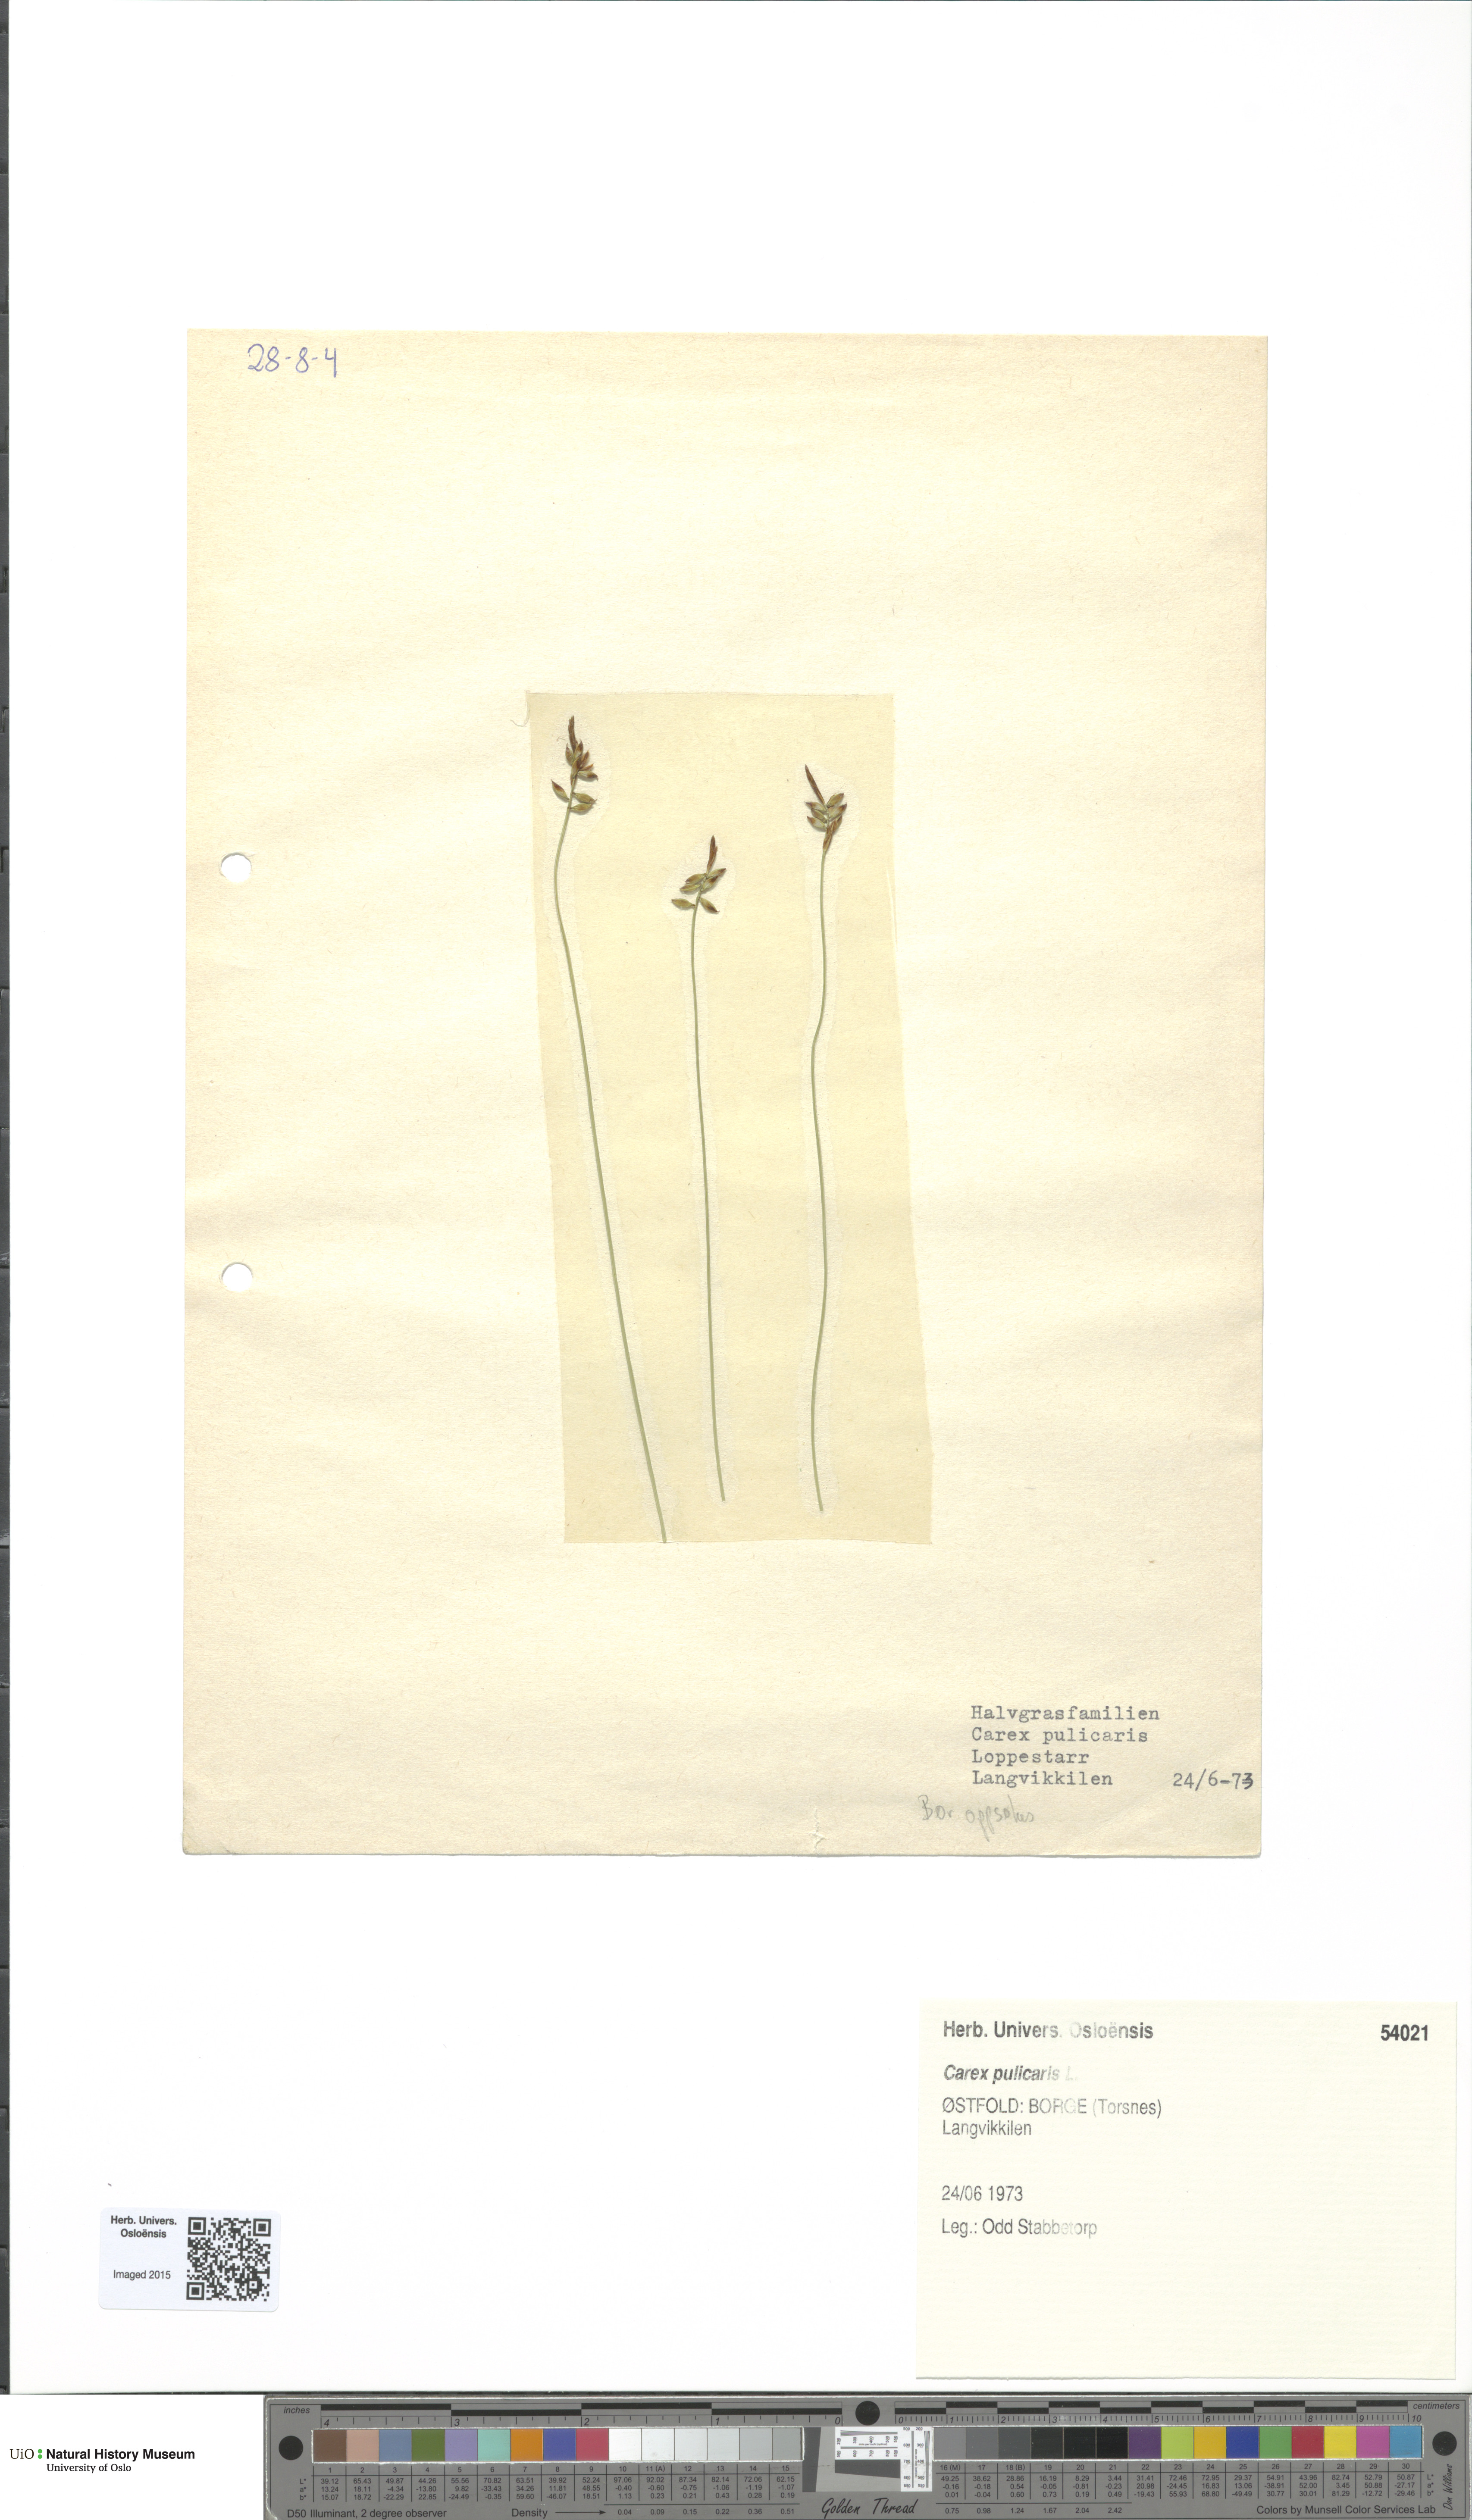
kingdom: Plantae
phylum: Tracheophyta
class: Liliopsida
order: Poales
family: Cyperaceae
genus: Carex
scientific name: Carex pulicaris
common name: Flea sedge
